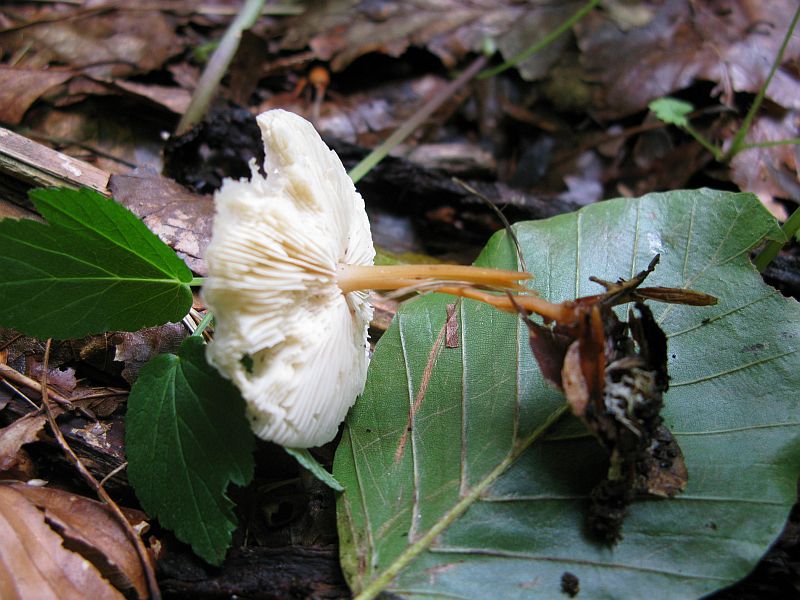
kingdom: Fungi
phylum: Basidiomycota
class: Agaricomycetes
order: Agaricales
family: Omphalotaceae
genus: Gymnopus
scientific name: Gymnopus dryophilus
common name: løv-fladhat
